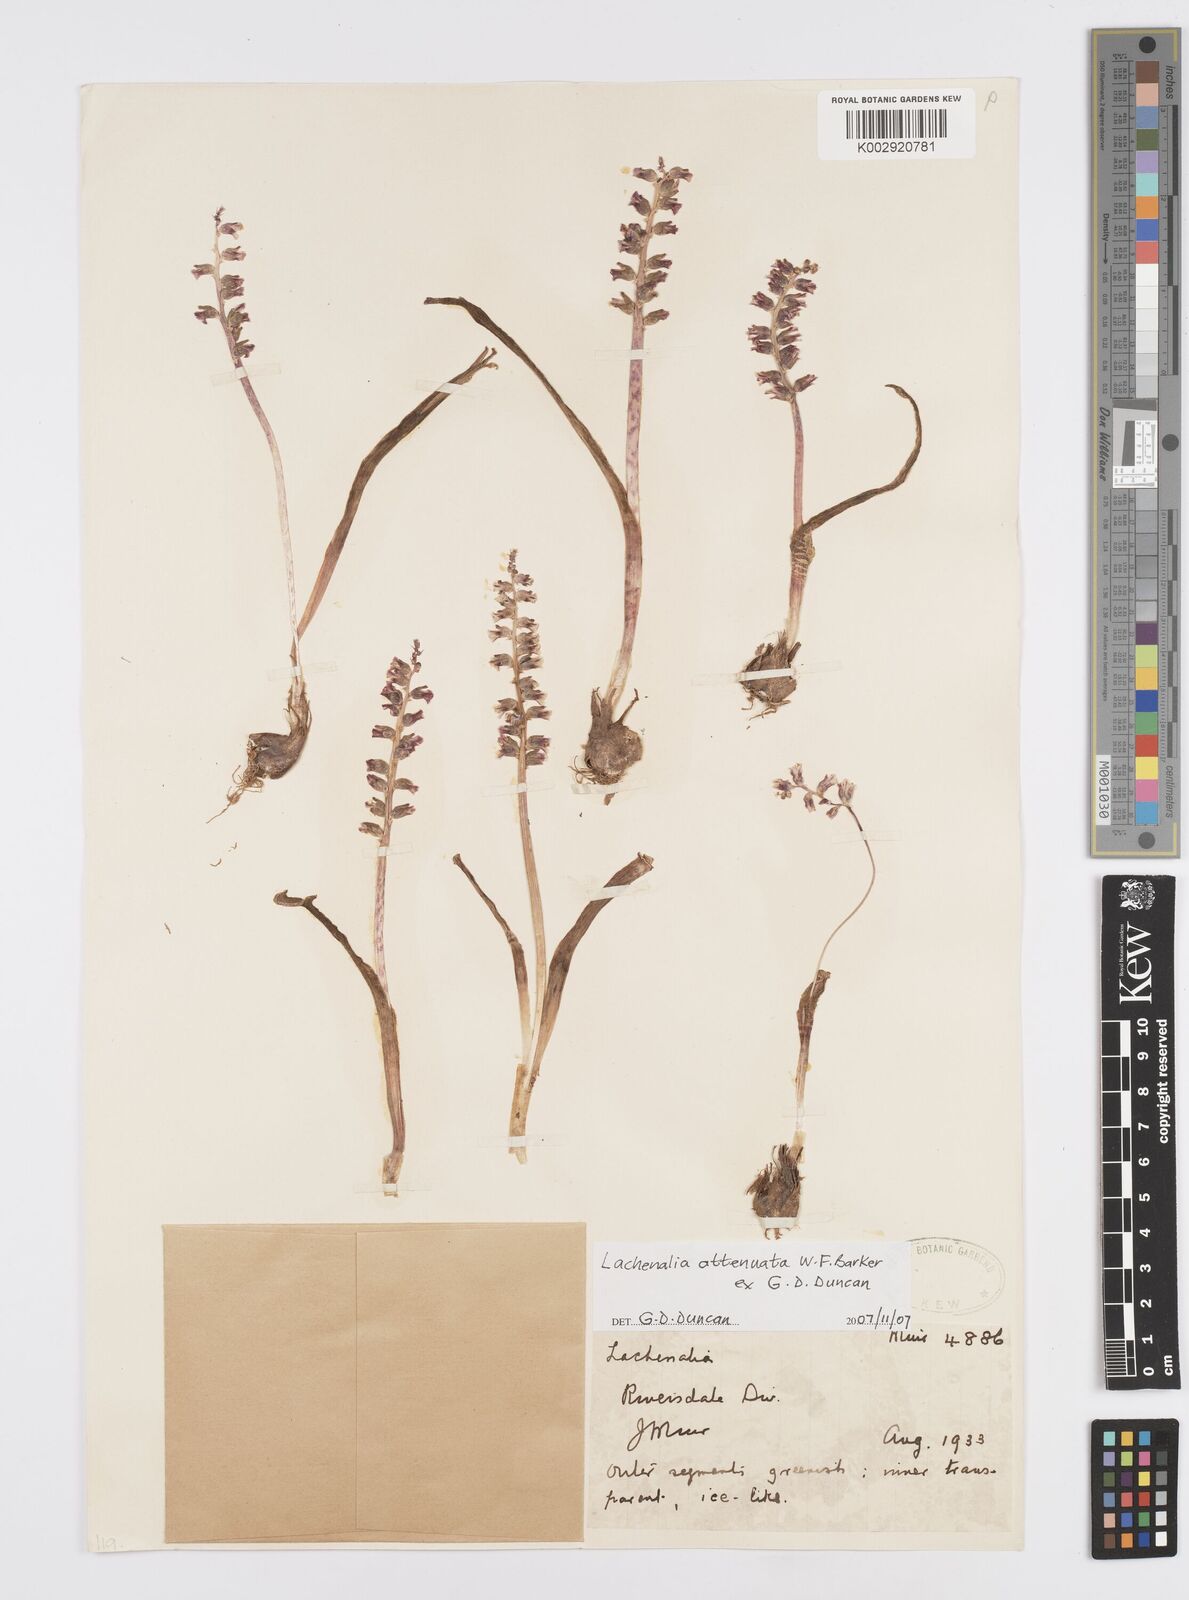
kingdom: Plantae
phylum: Tracheophyta
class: Liliopsida
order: Asparagales
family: Asparagaceae
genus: Lachenalia
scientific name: Lachenalia attenuata
